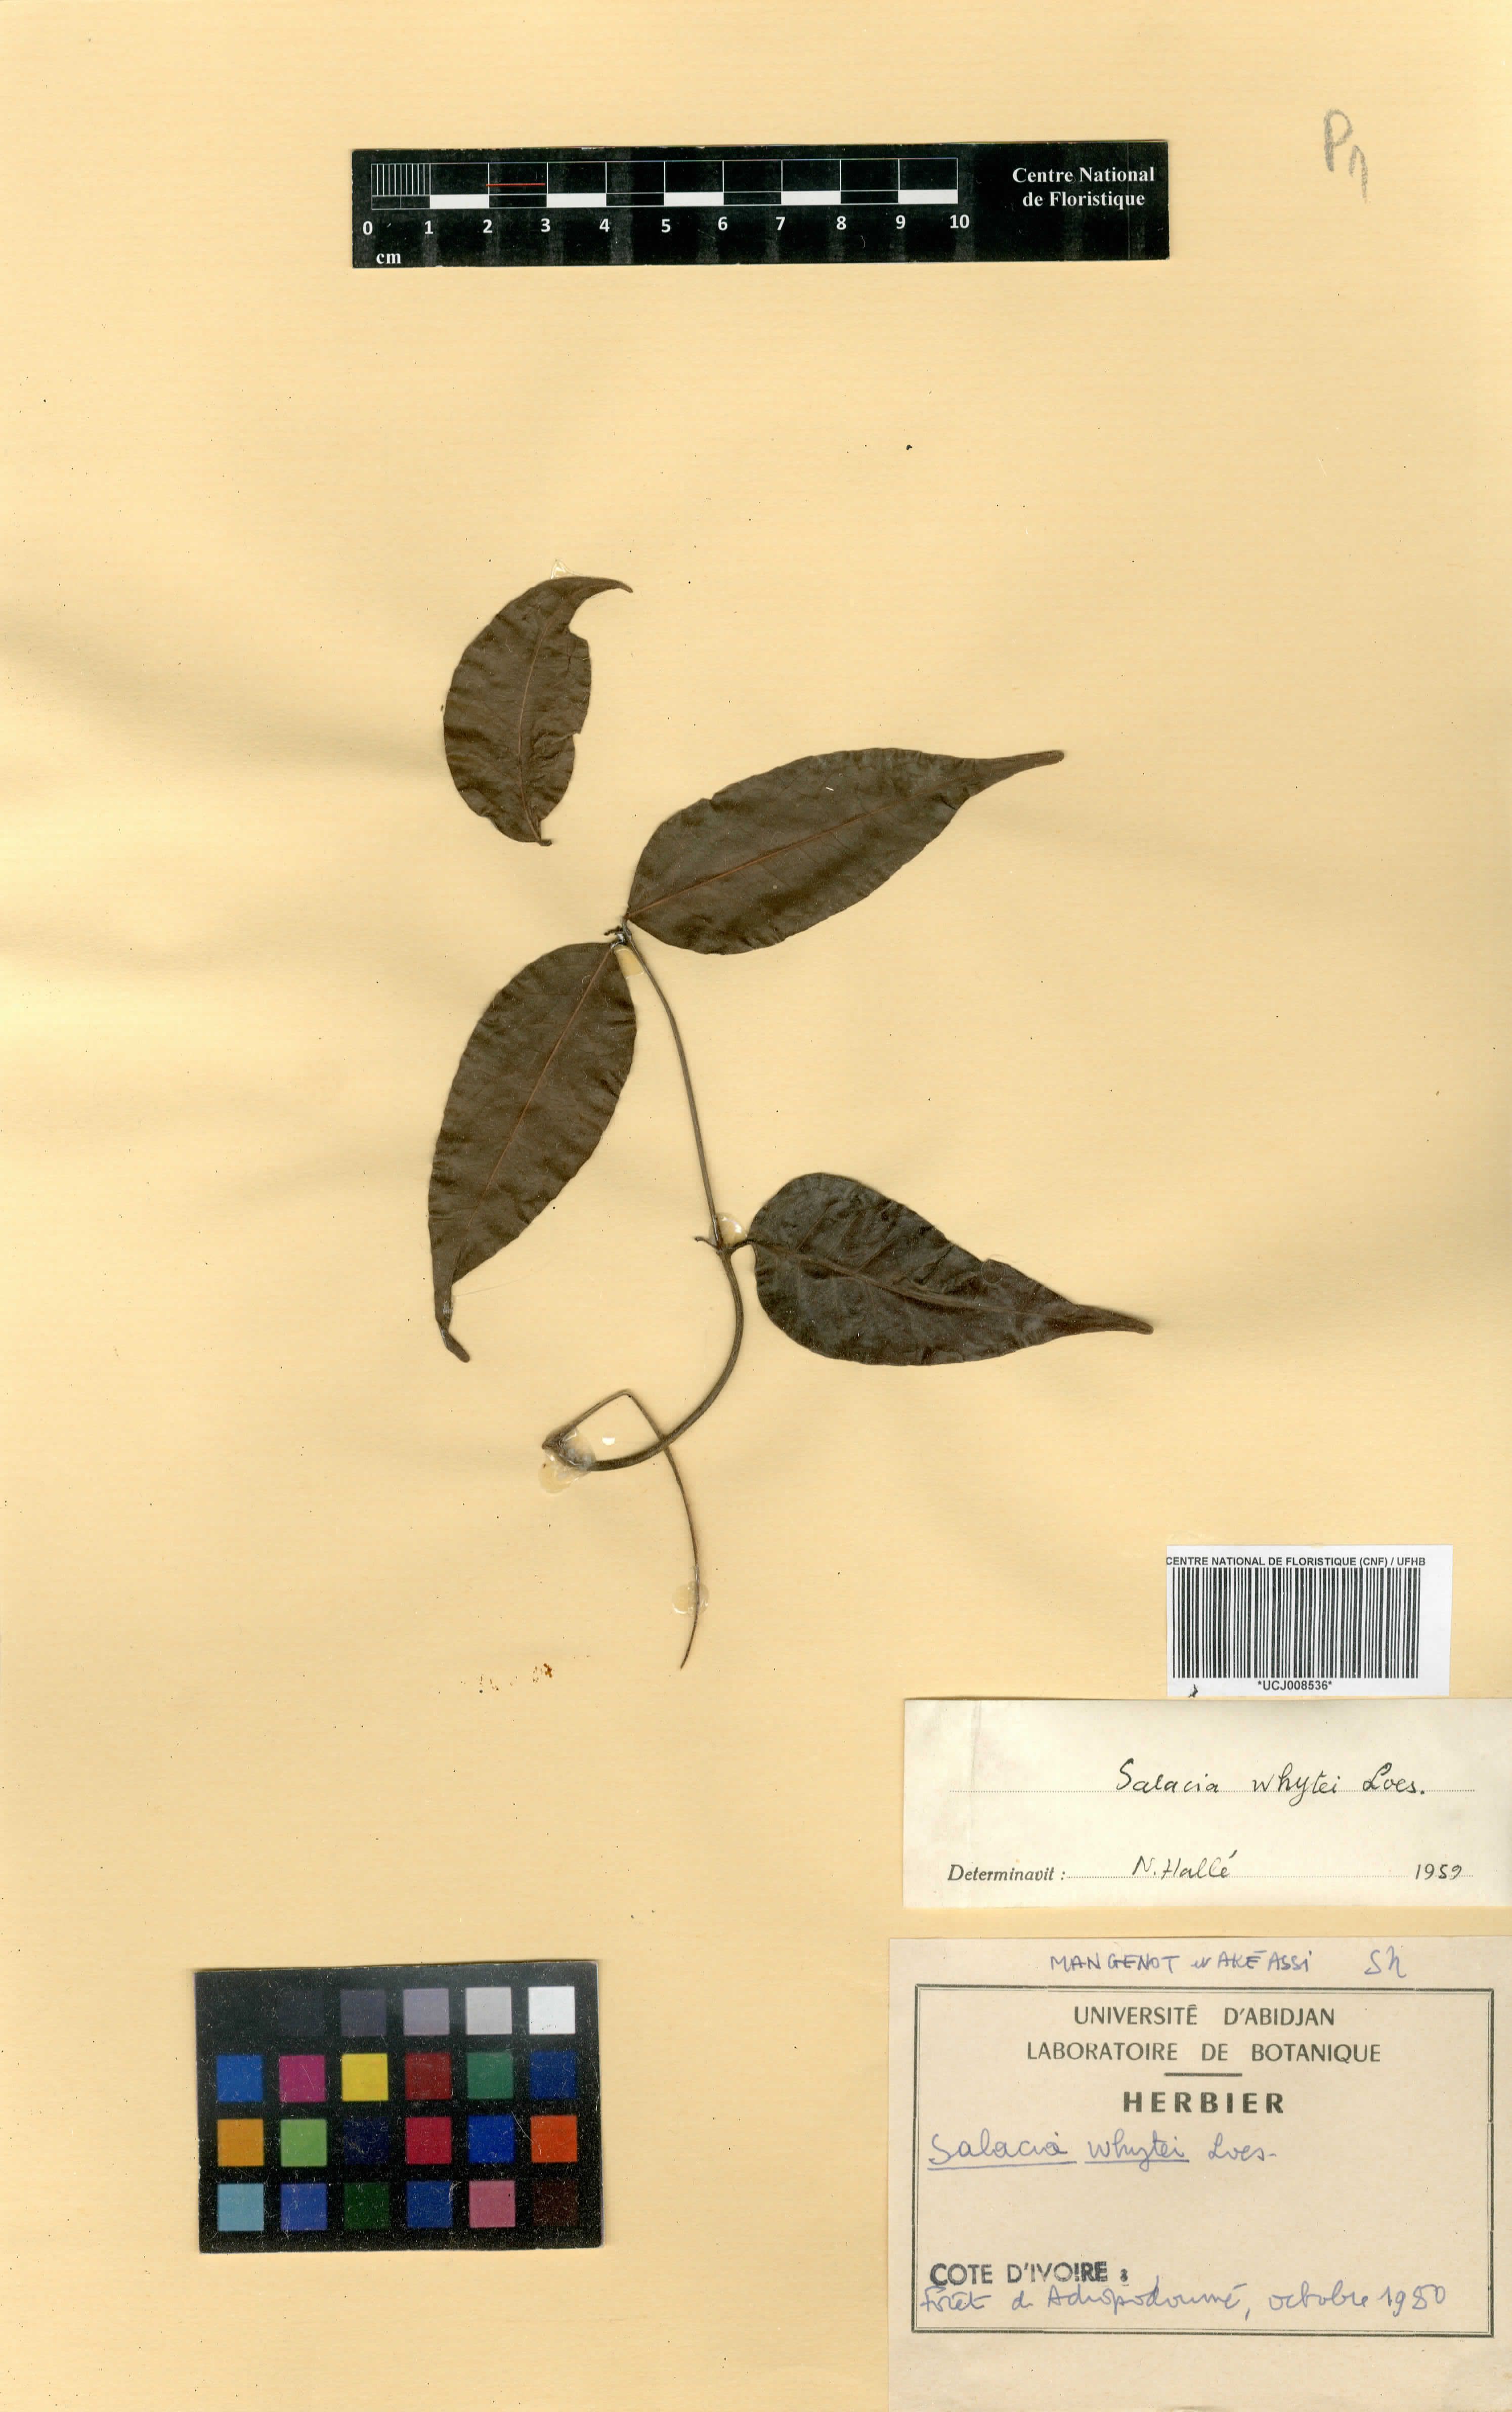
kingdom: Plantae
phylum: Tracheophyta
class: Magnoliopsida
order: Celastrales
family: Celastraceae
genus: Salacia
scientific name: Salacia whytei
